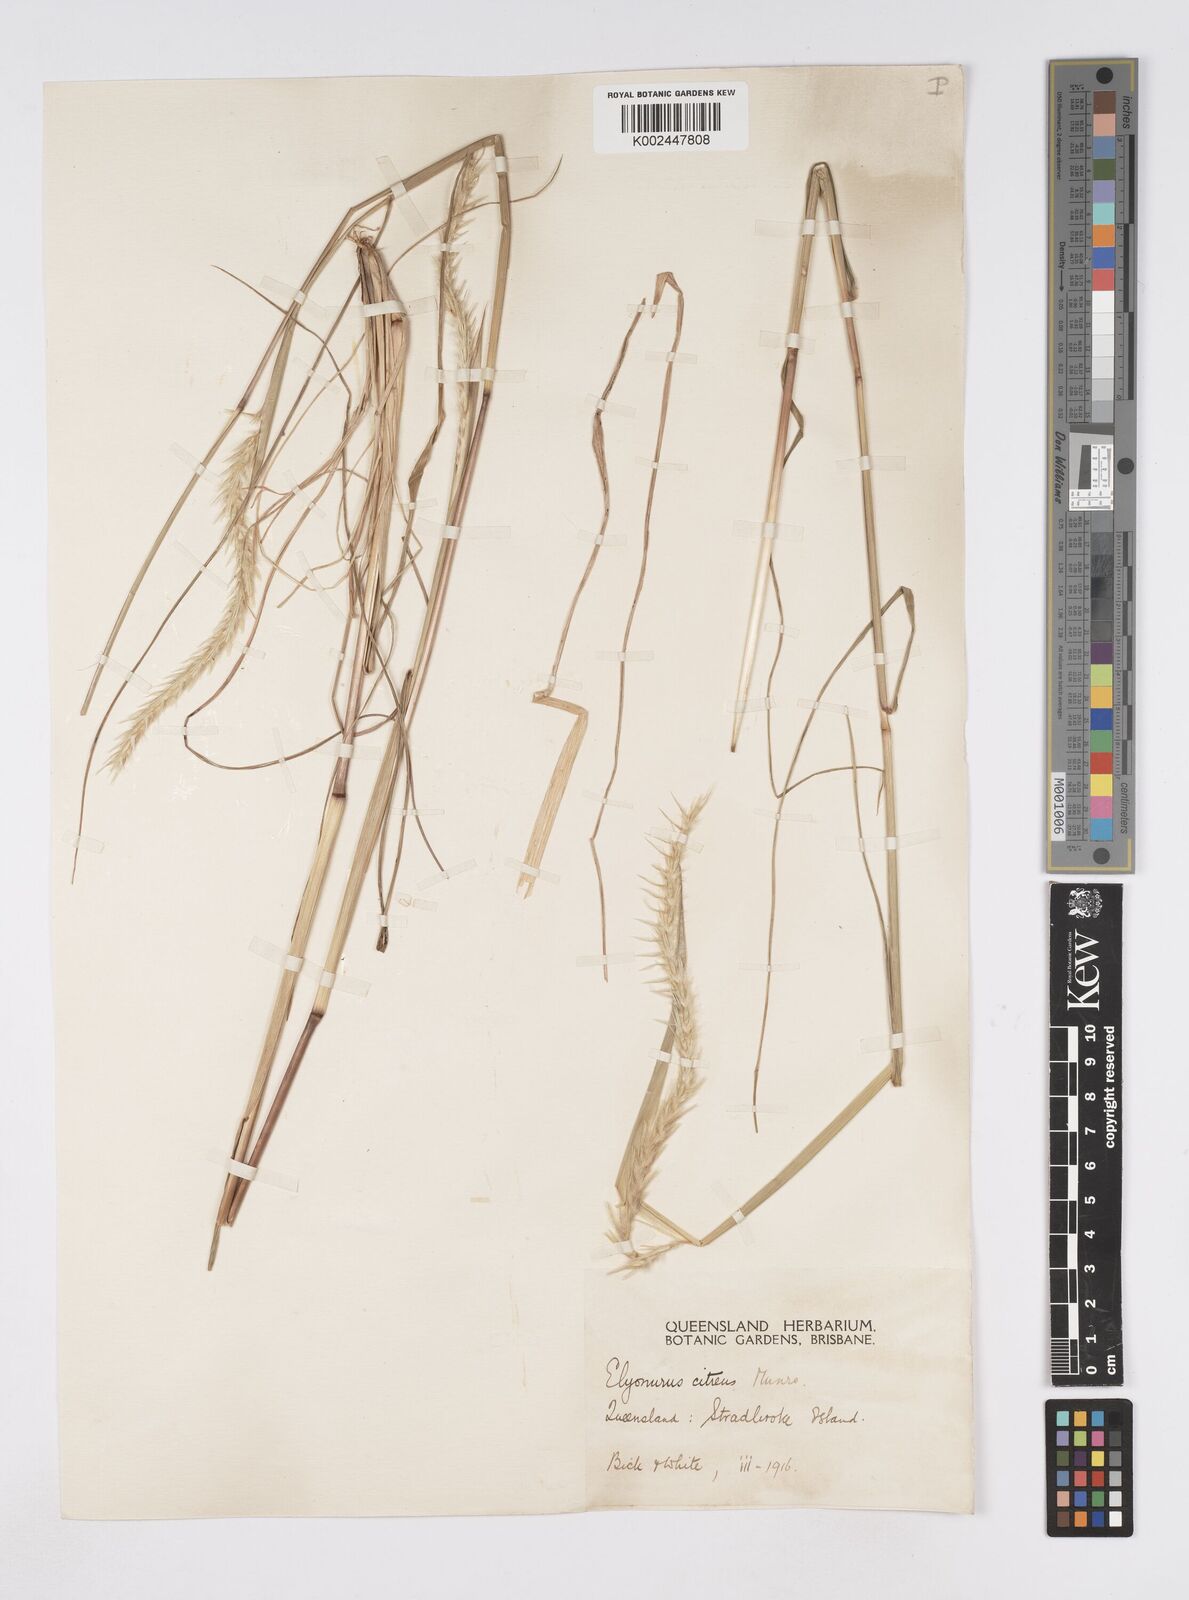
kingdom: Plantae
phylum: Tracheophyta
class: Liliopsida
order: Poales
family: Poaceae
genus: Elionurus
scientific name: Elionurus citreus
